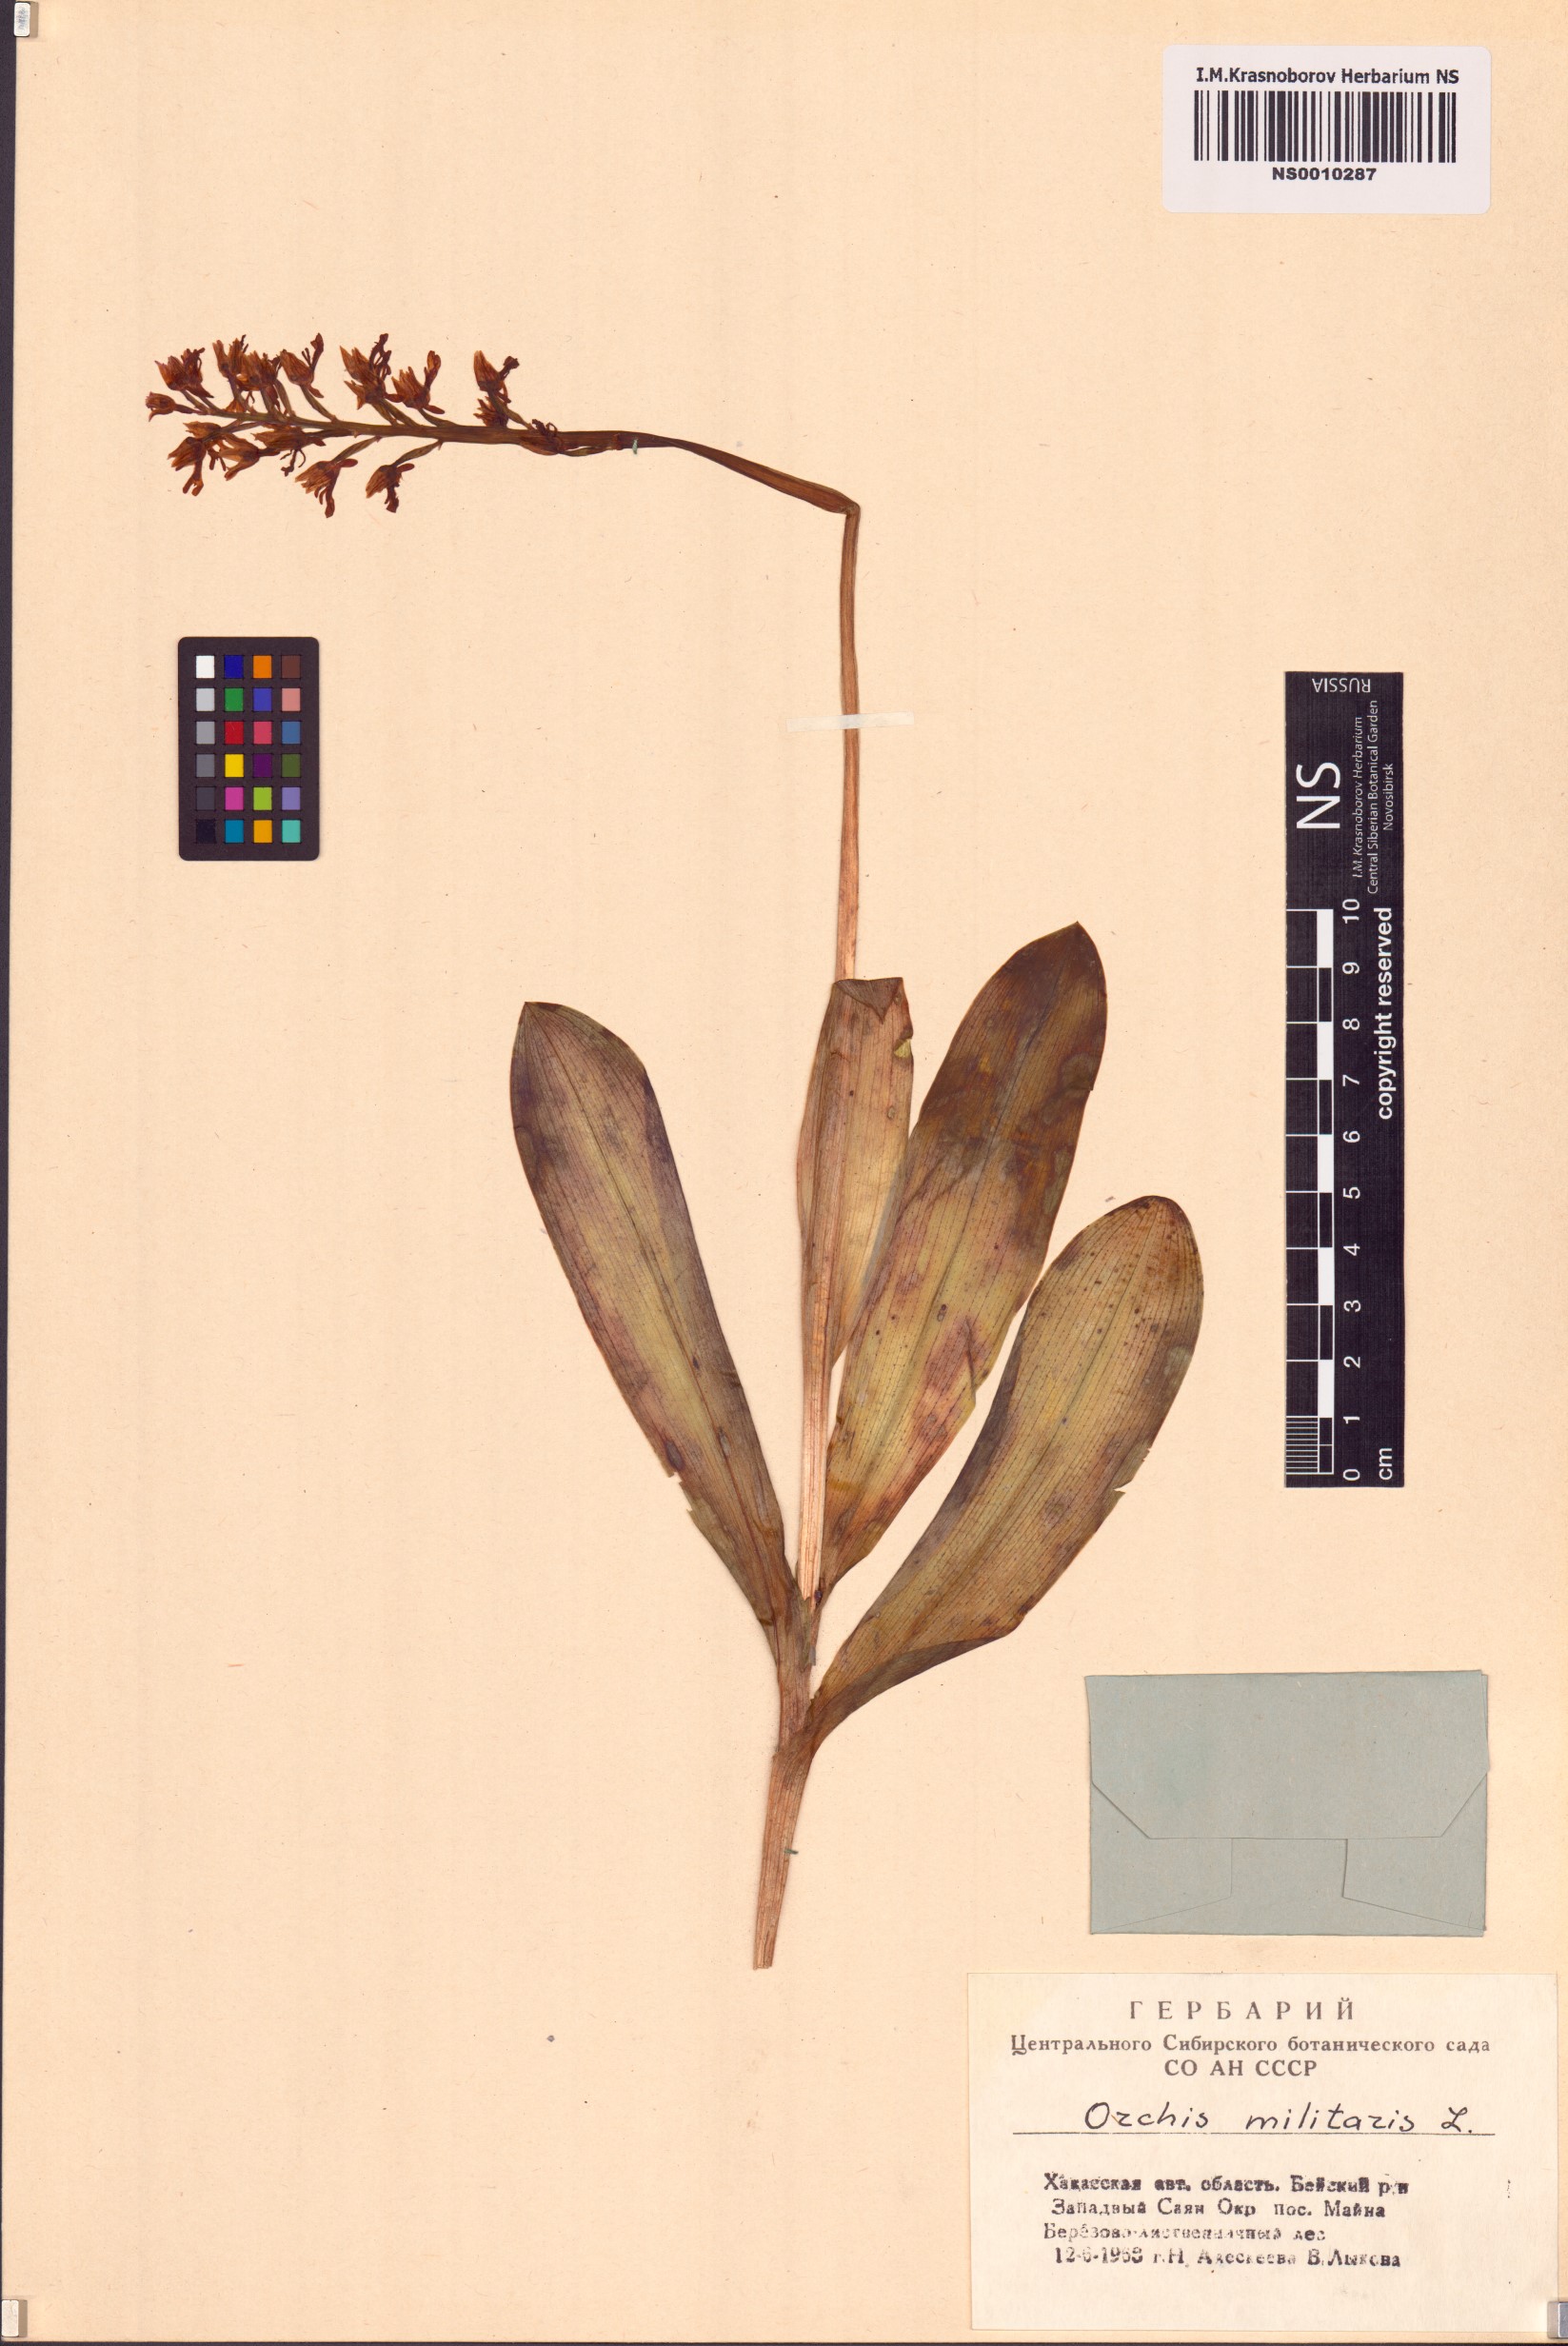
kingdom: Plantae
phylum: Tracheophyta
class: Liliopsida
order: Asparagales
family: Orchidaceae
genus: Orchis
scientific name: Orchis militaris
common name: Military orchid
